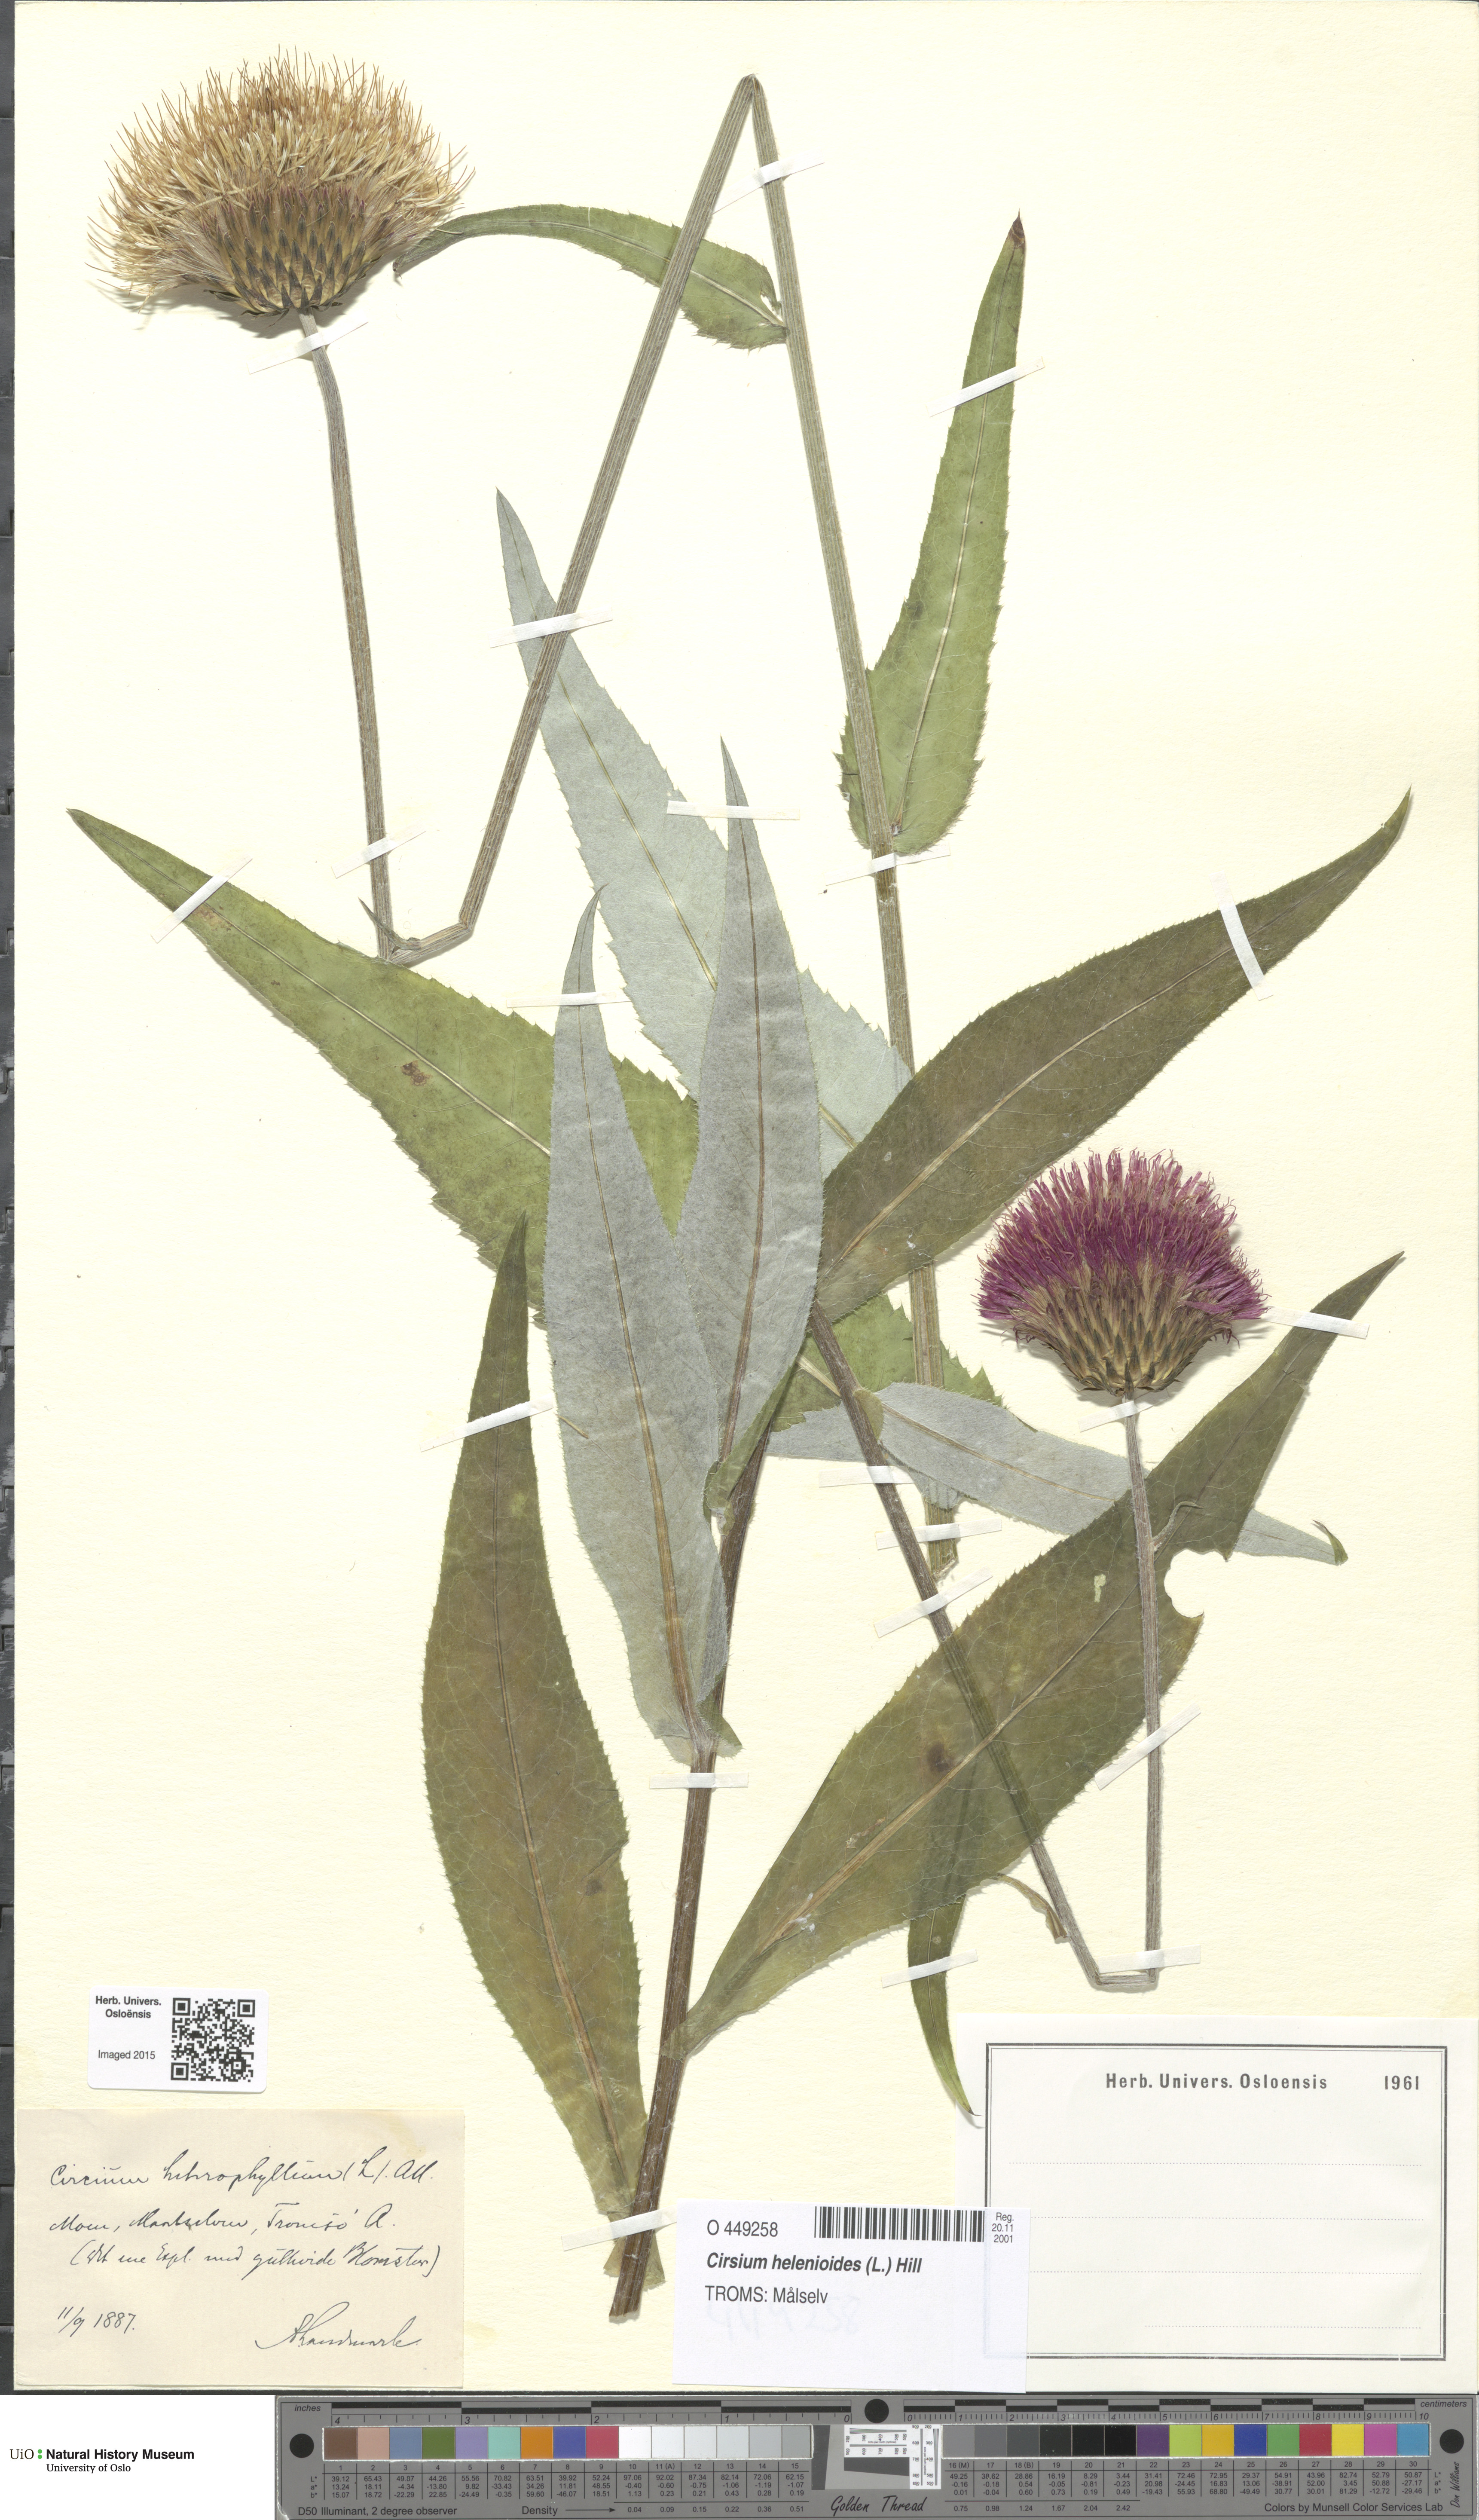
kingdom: Plantae
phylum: Tracheophyta
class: Magnoliopsida
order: Asterales
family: Asteraceae
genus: Cirsium
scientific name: Cirsium heterophyllum
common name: Melancholy thistle
